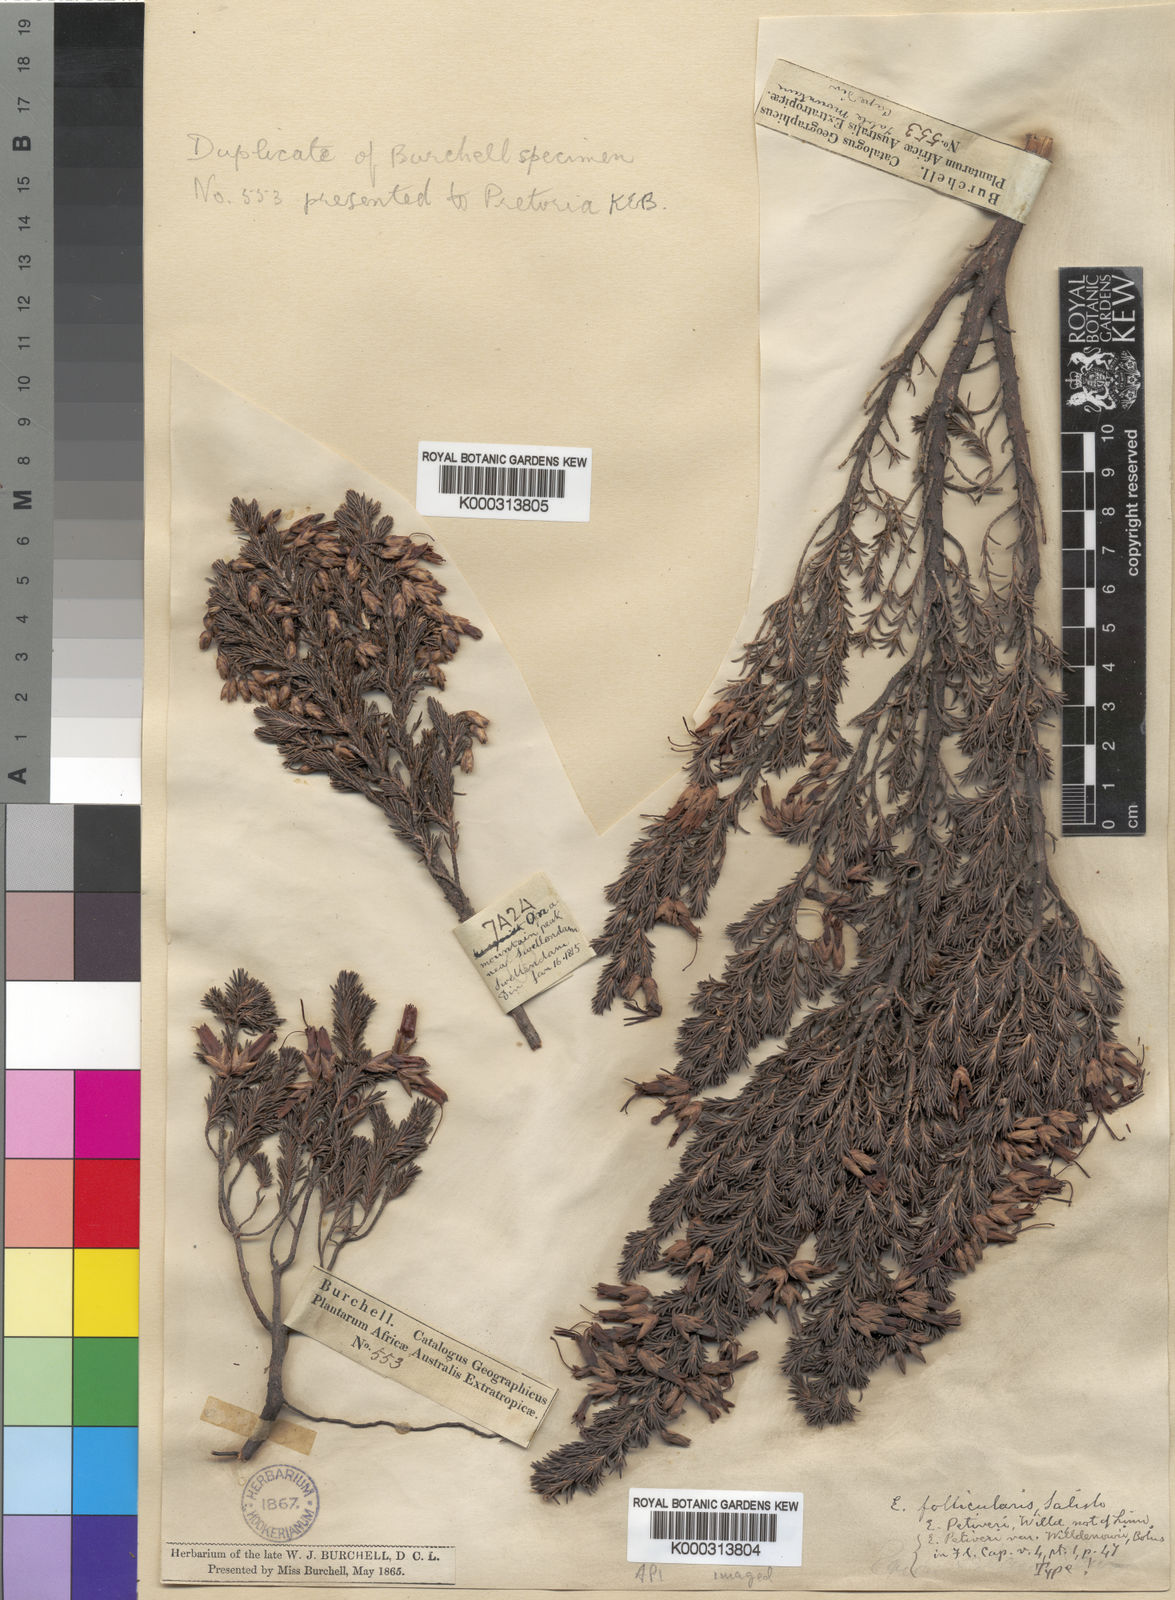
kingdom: Plantae
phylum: Tracheophyta
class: Magnoliopsida
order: Ericales
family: Ericaceae
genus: Erica
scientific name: Erica coccinea
